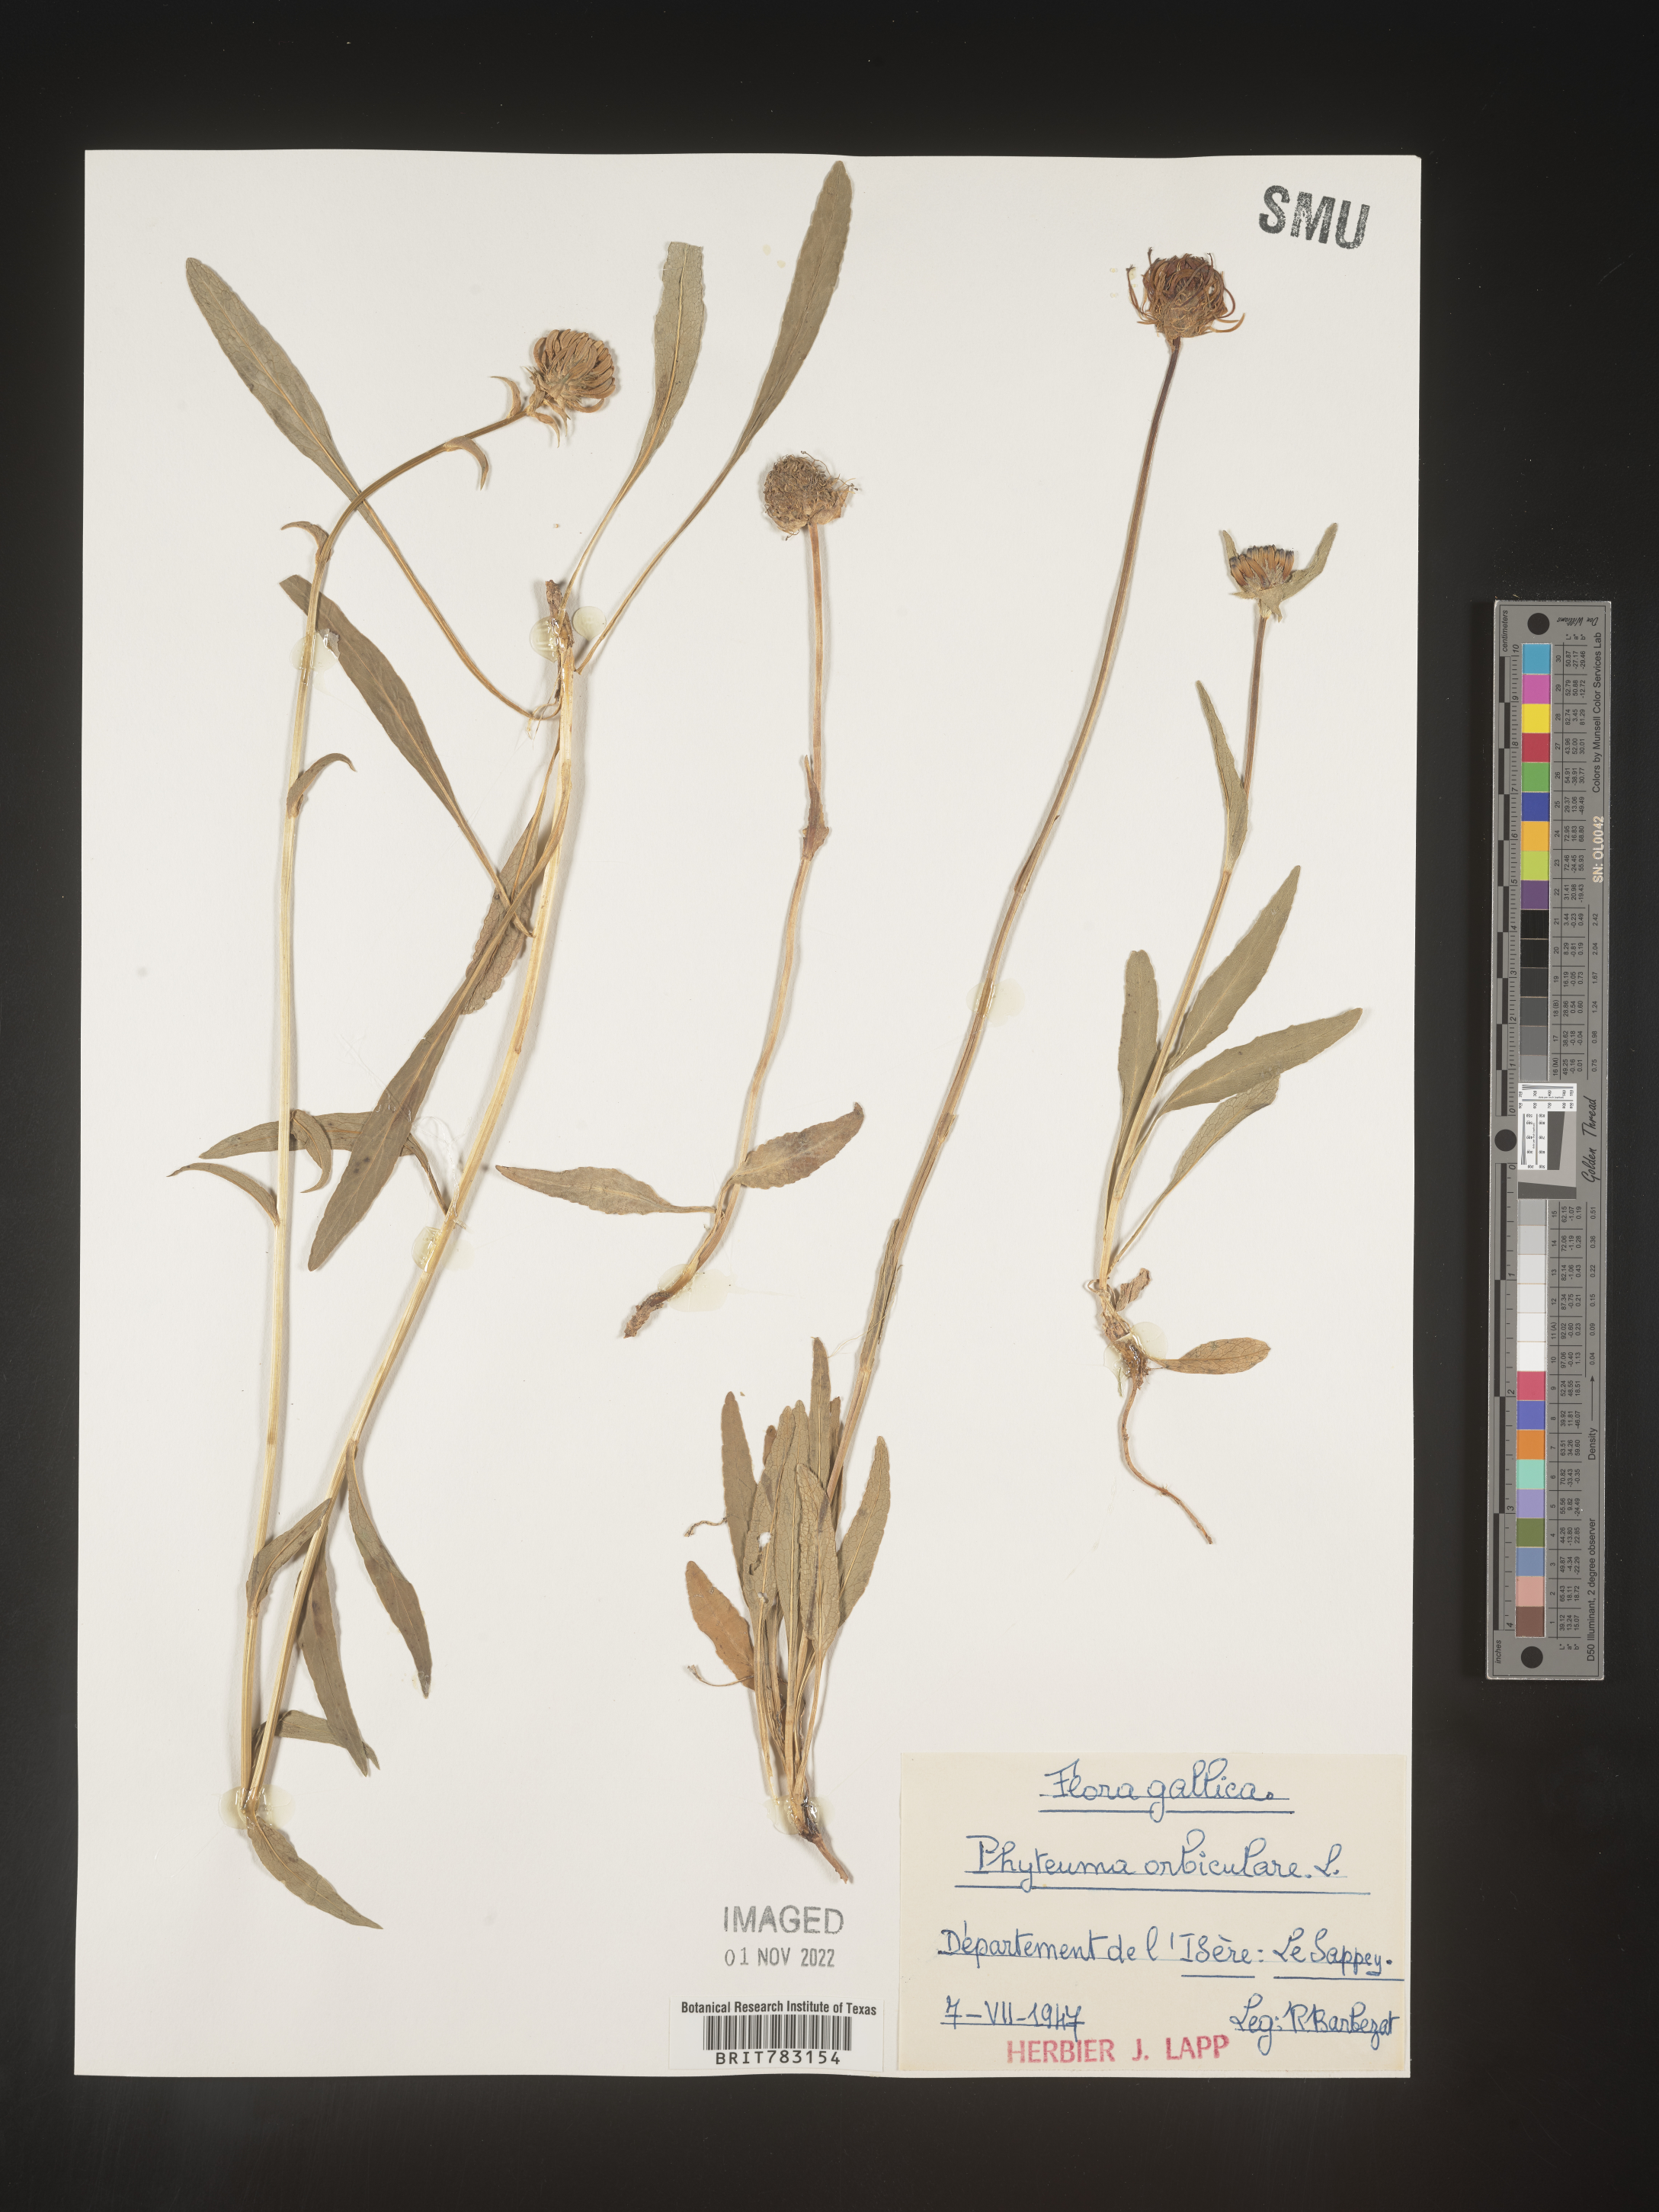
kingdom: Plantae
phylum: Tracheophyta
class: Magnoliopsida
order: Asterales
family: Campanulaceae
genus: Phyteuma
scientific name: Phyteuma
